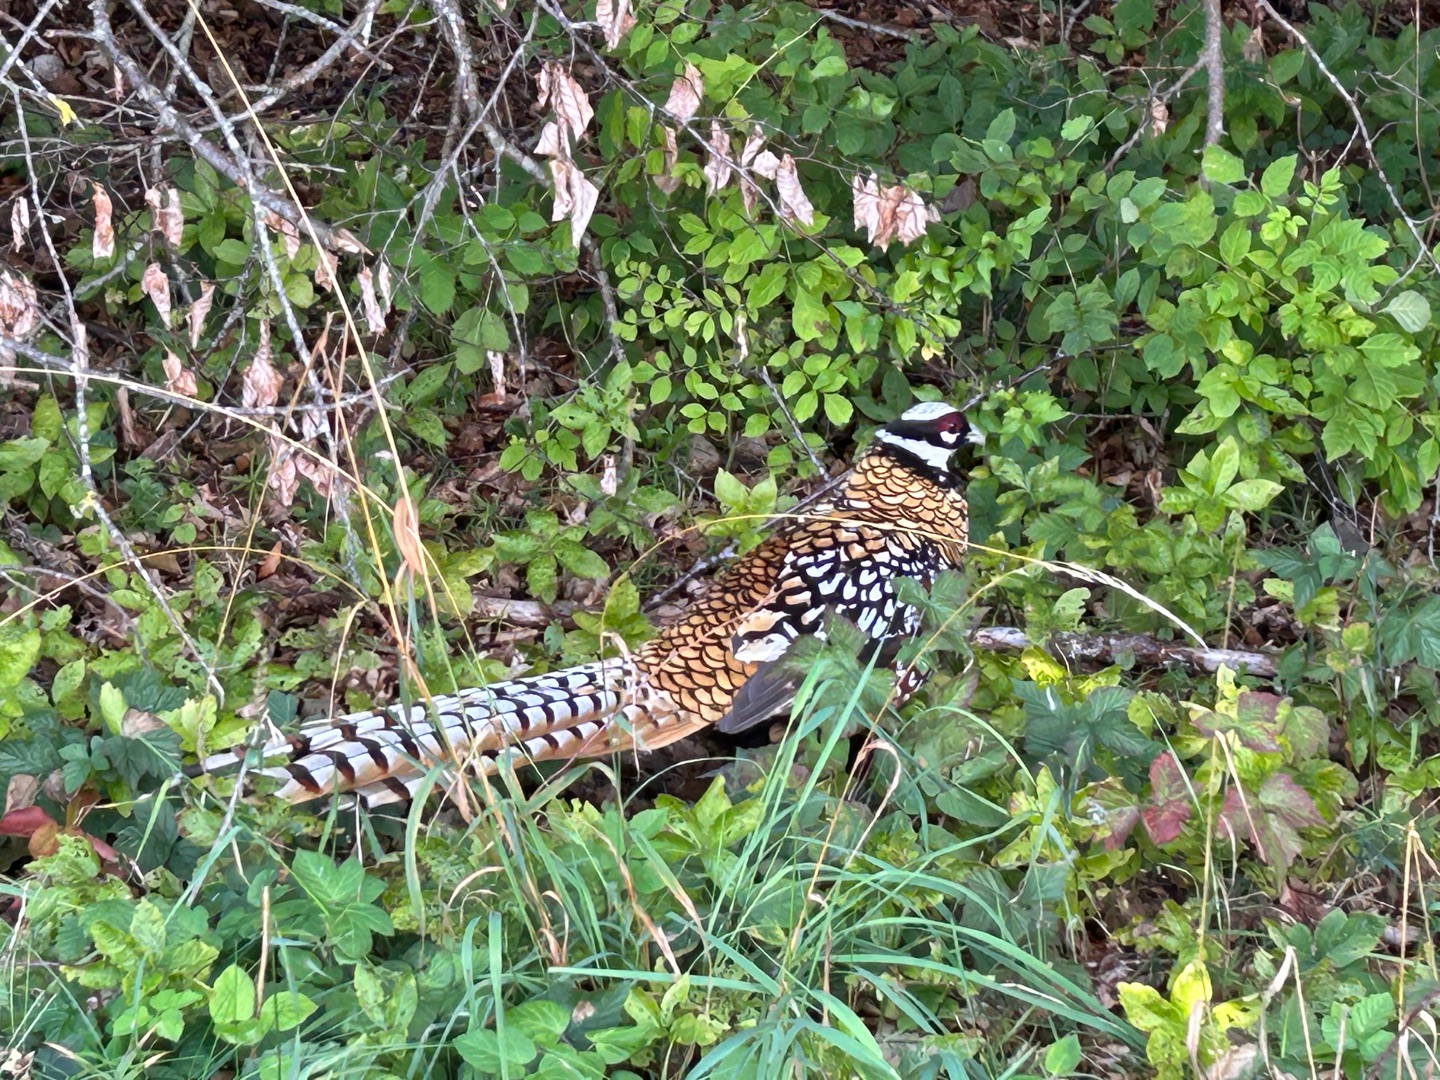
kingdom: Animalia
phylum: Chordata
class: Aves
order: Galliformes
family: Phasianidae
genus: Syrmaticus
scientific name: Syrmaticus reevesii
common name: Kongefasan
